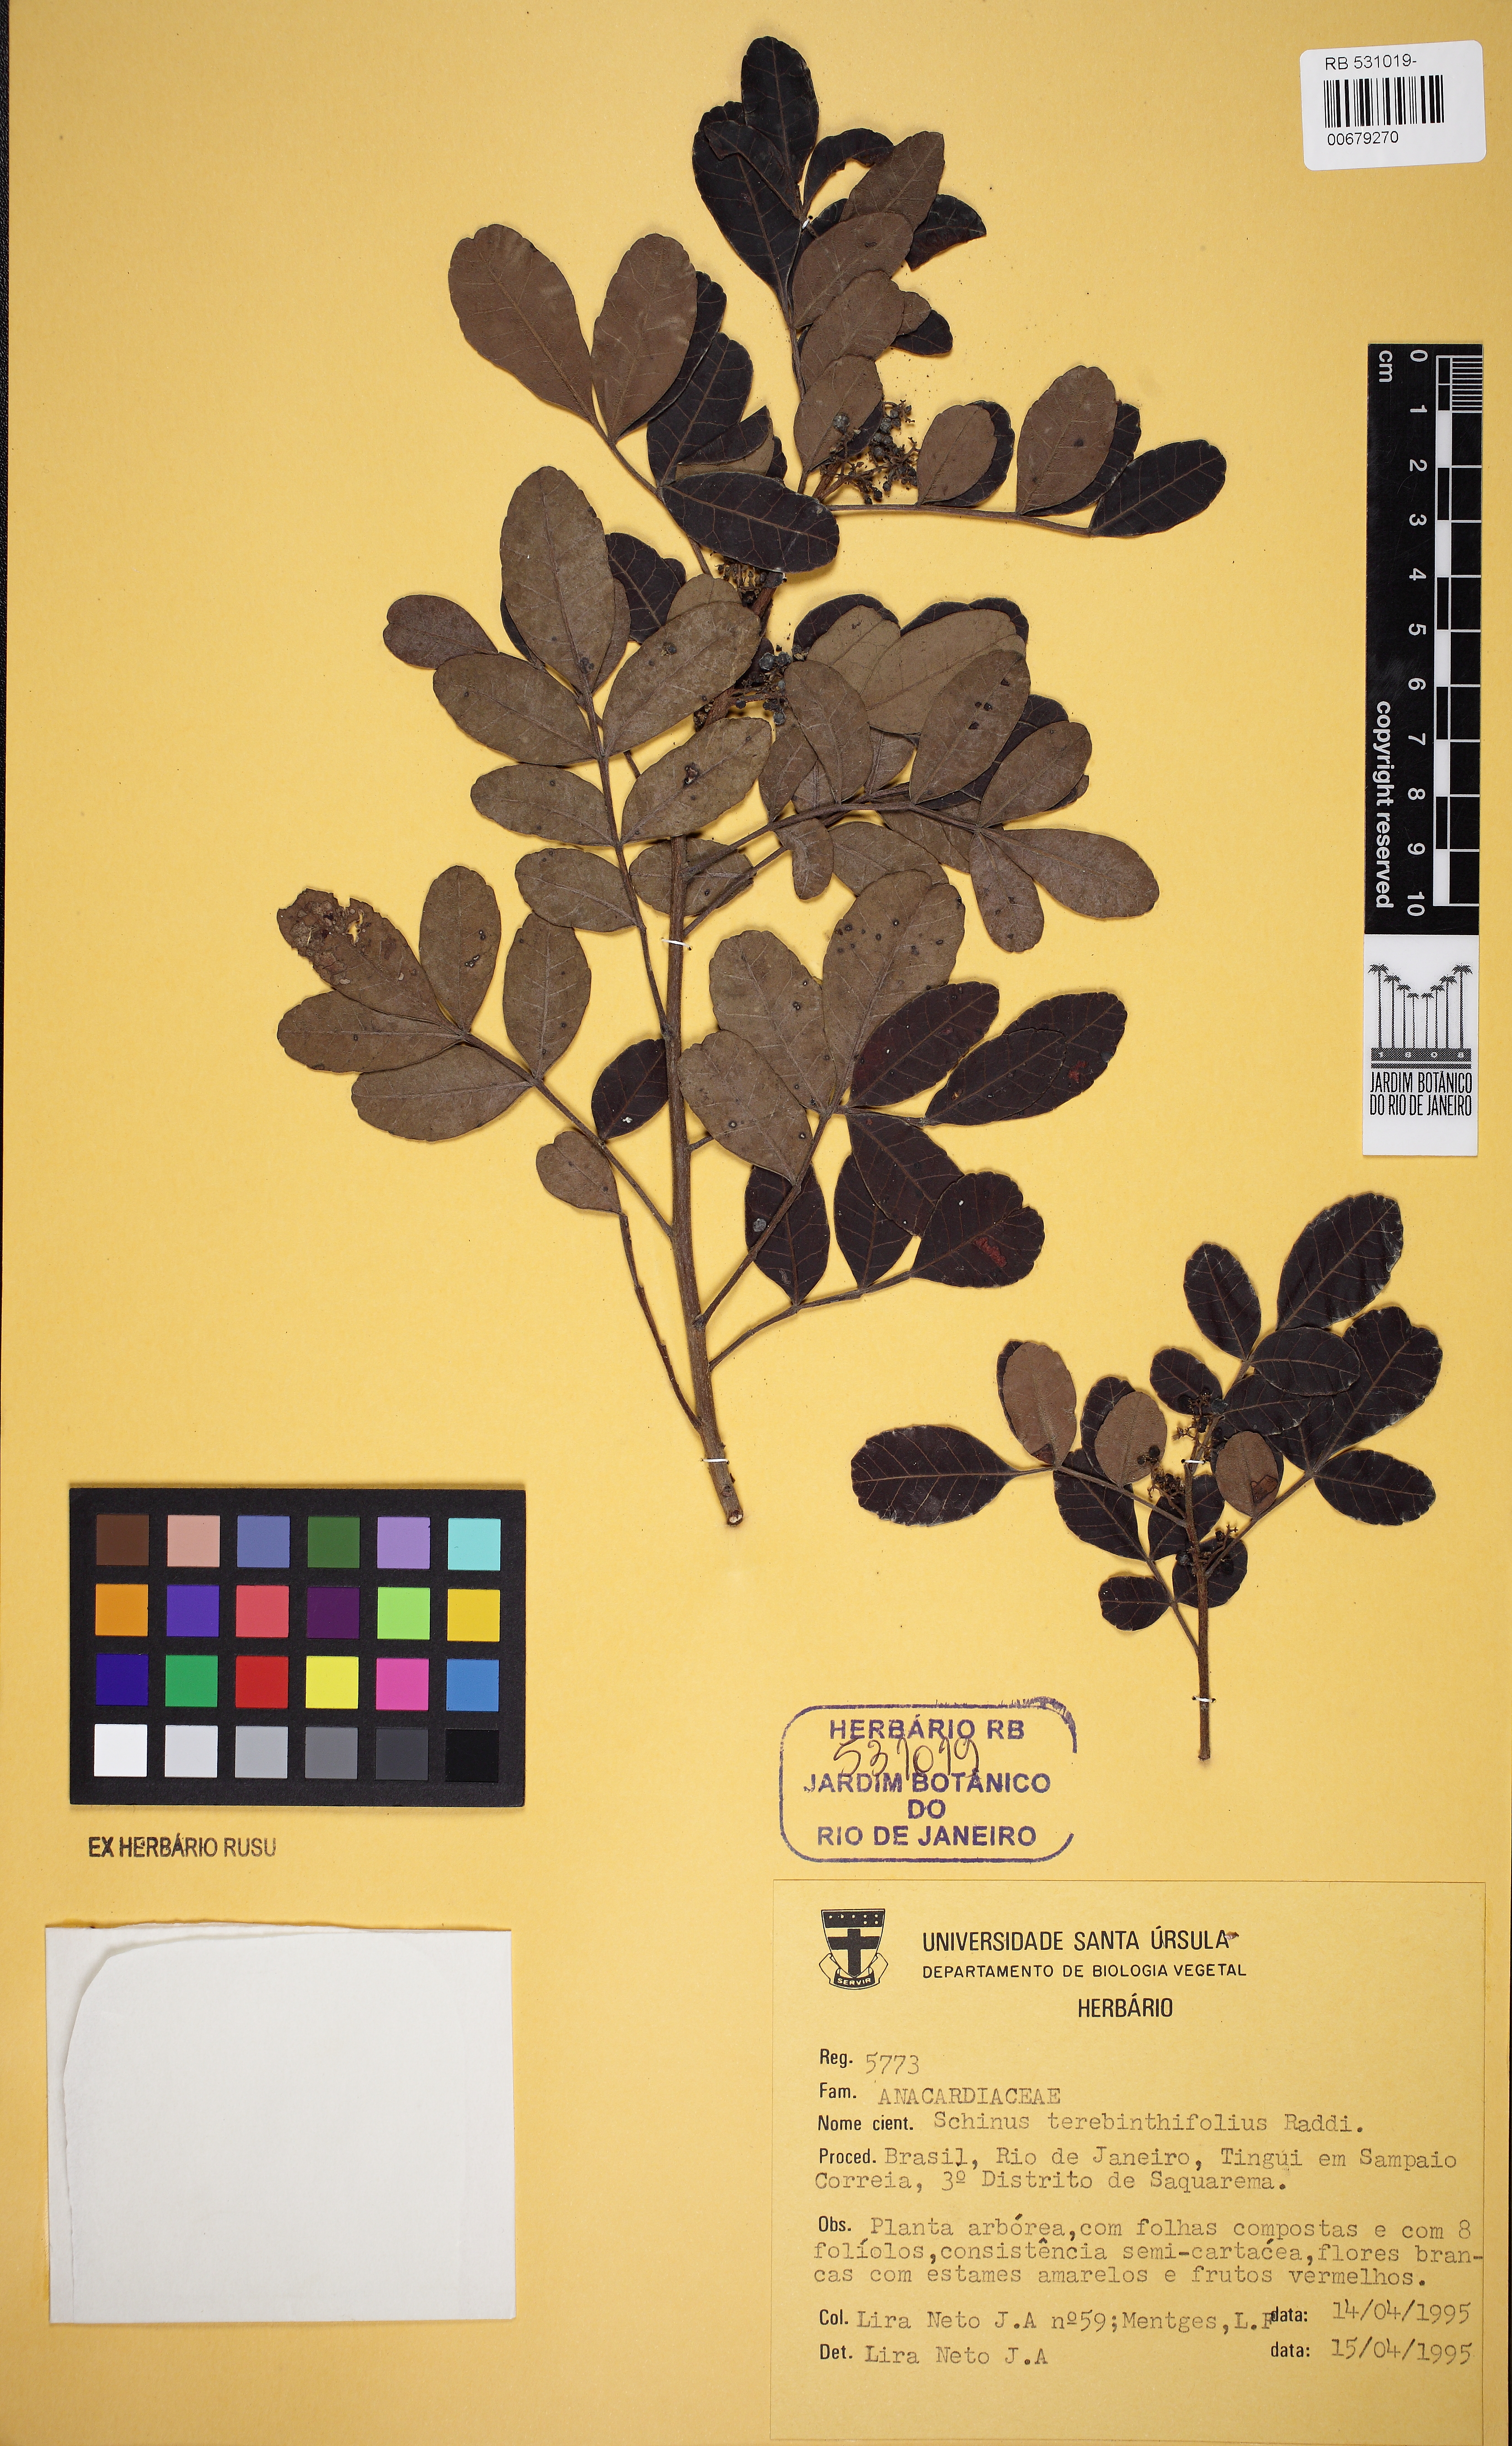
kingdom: Plantae
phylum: Tracheophyta
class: Magnoliopsida
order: Sapindales
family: Anacardiaceae
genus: Schinus
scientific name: Schinus terebinthifolia
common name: Brazilian peppertree
